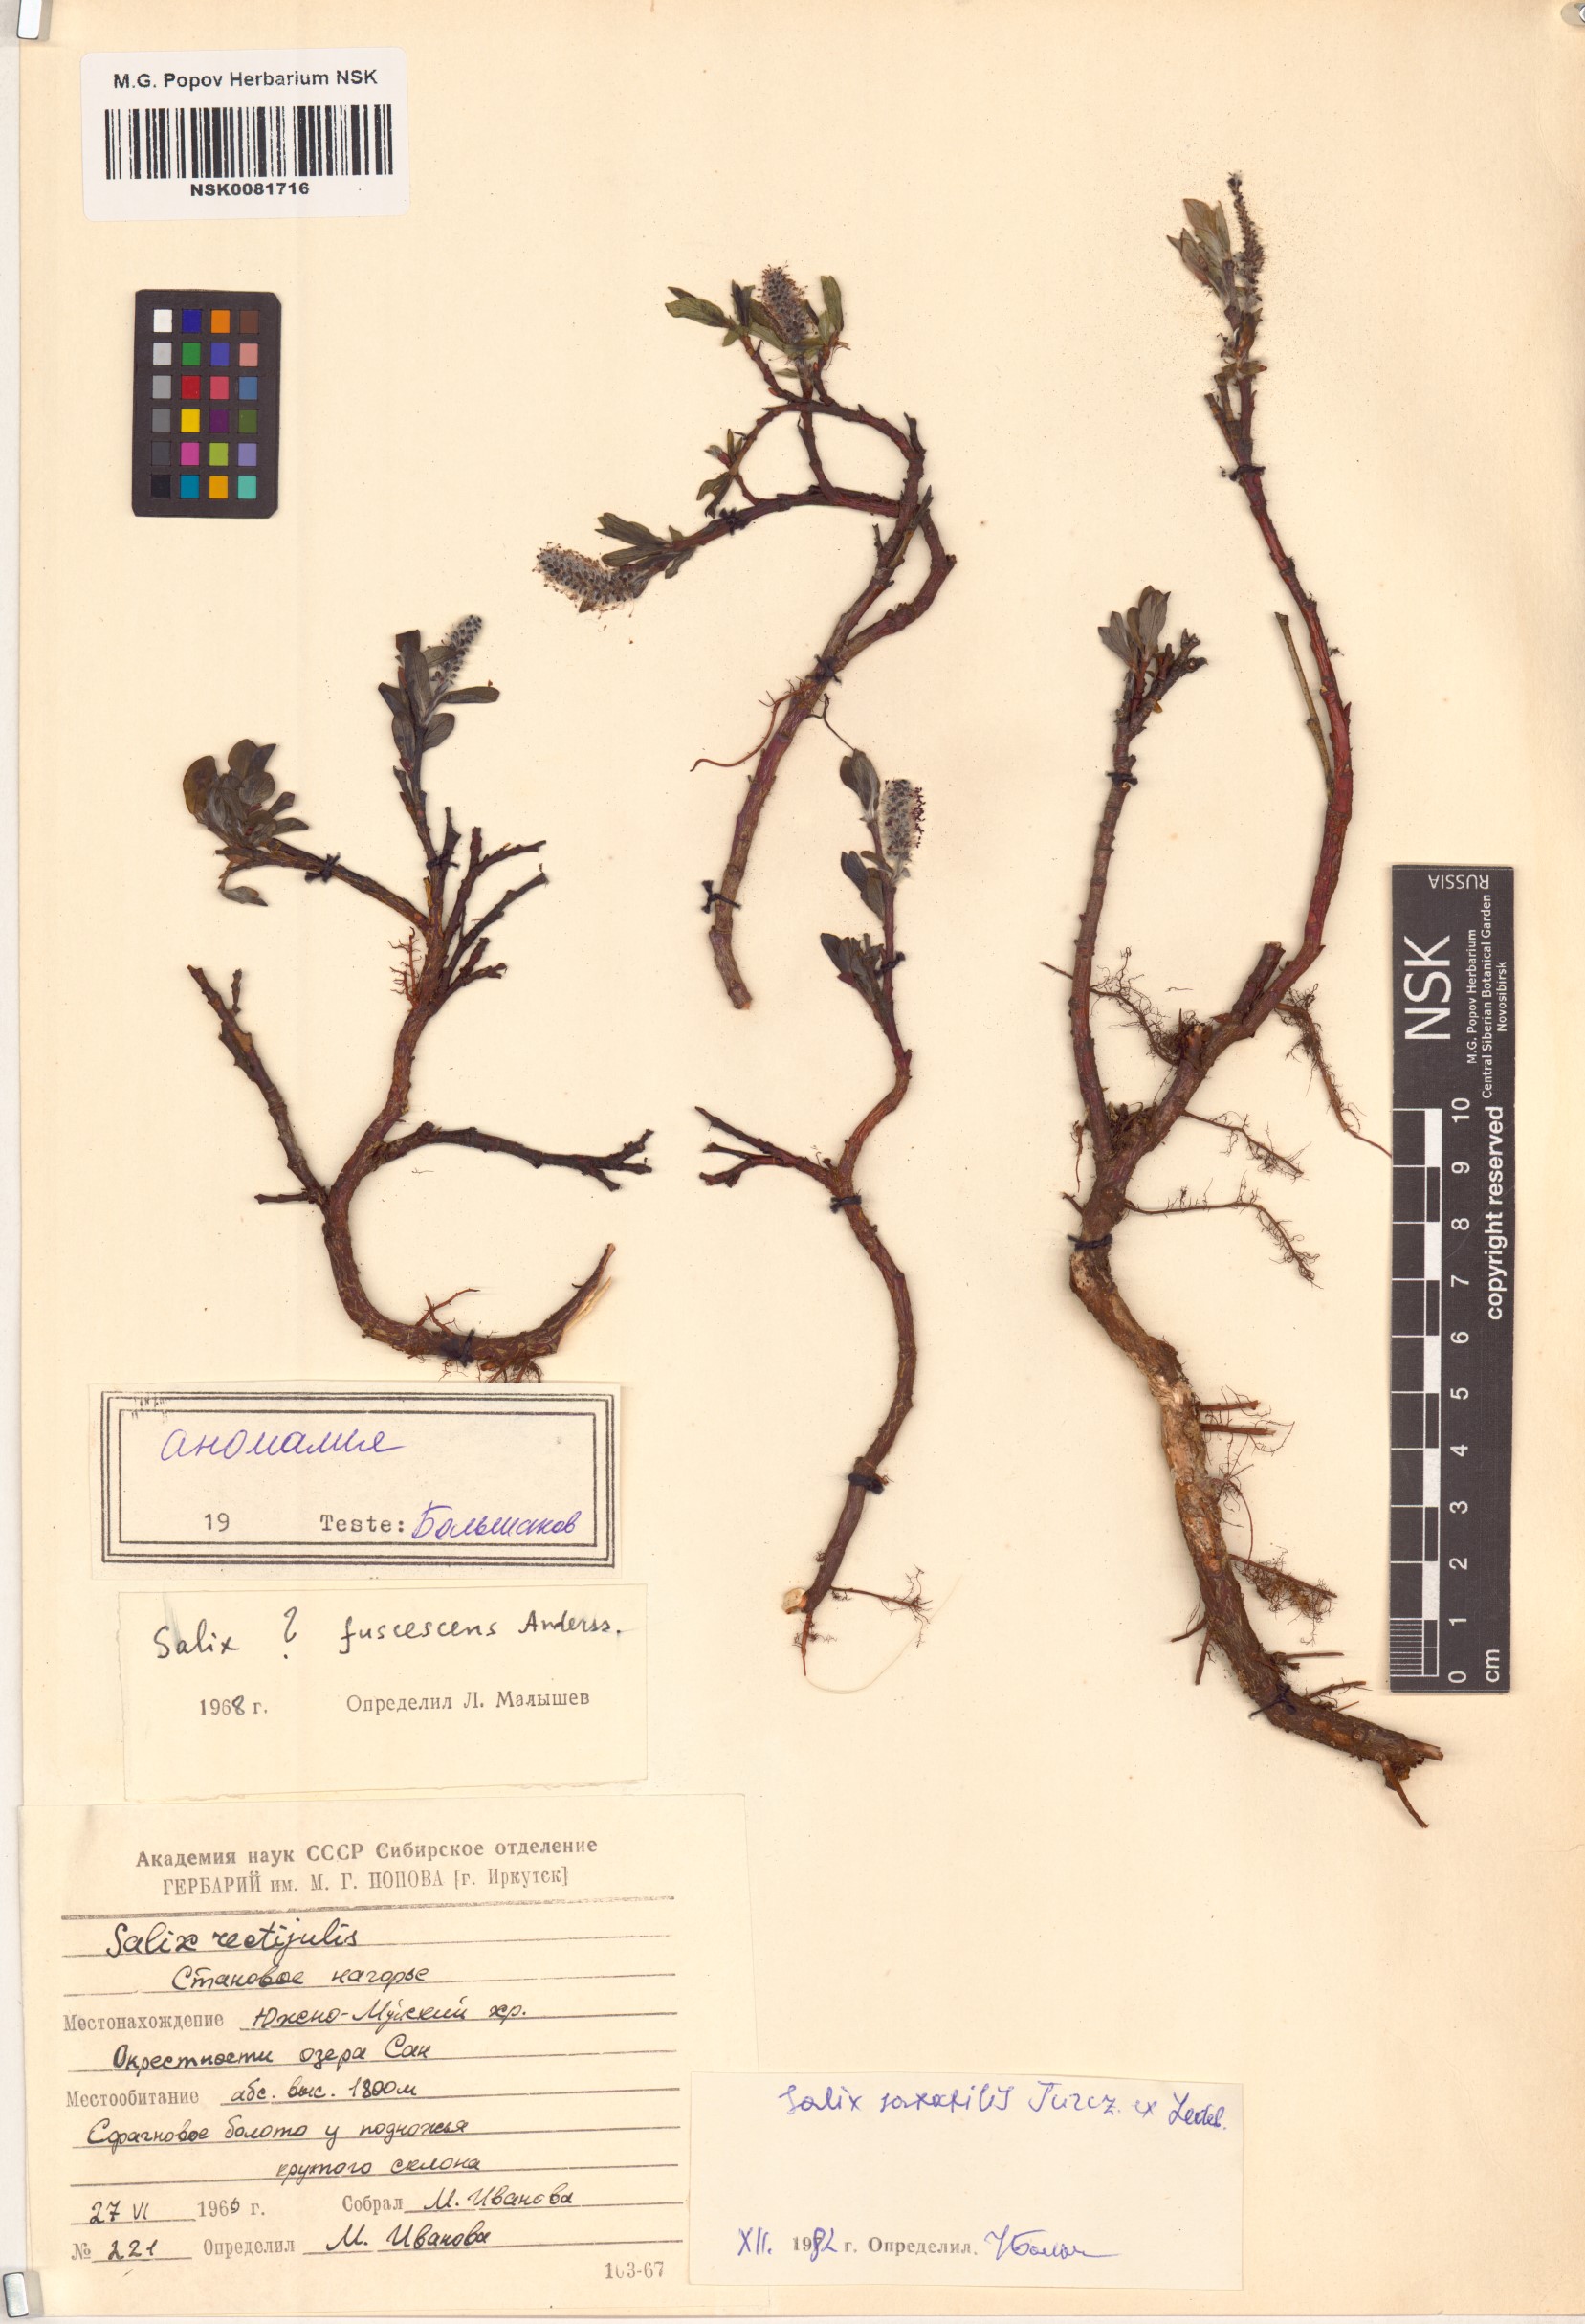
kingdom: Plantae
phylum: Tracheophyta
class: Magnoliopsida
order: Malpighiales
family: Salicaceae
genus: Salix
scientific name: Salix saxatilis
